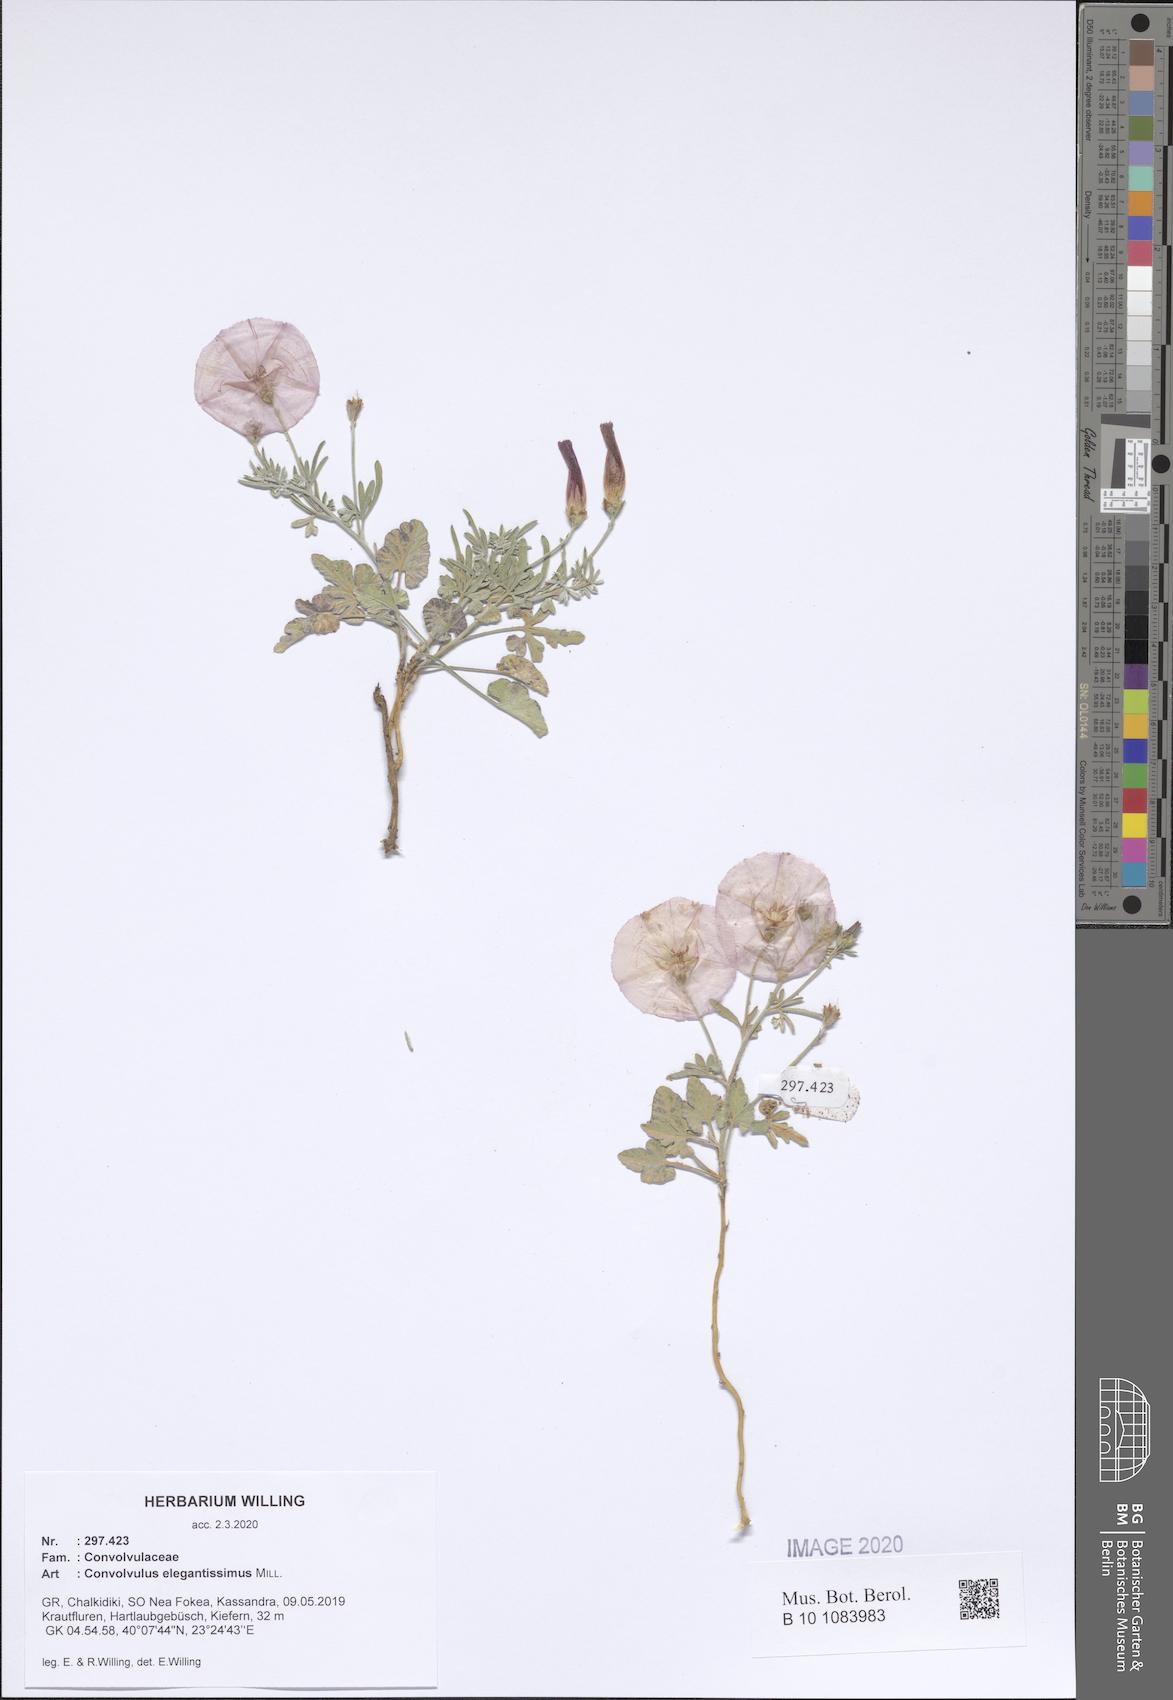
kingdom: Plantae
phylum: Tracheophyta
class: Magnoliopsida
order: Solanales
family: Convolvulaceae
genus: Convolvulus
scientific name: Convolvulus elegantissimus
